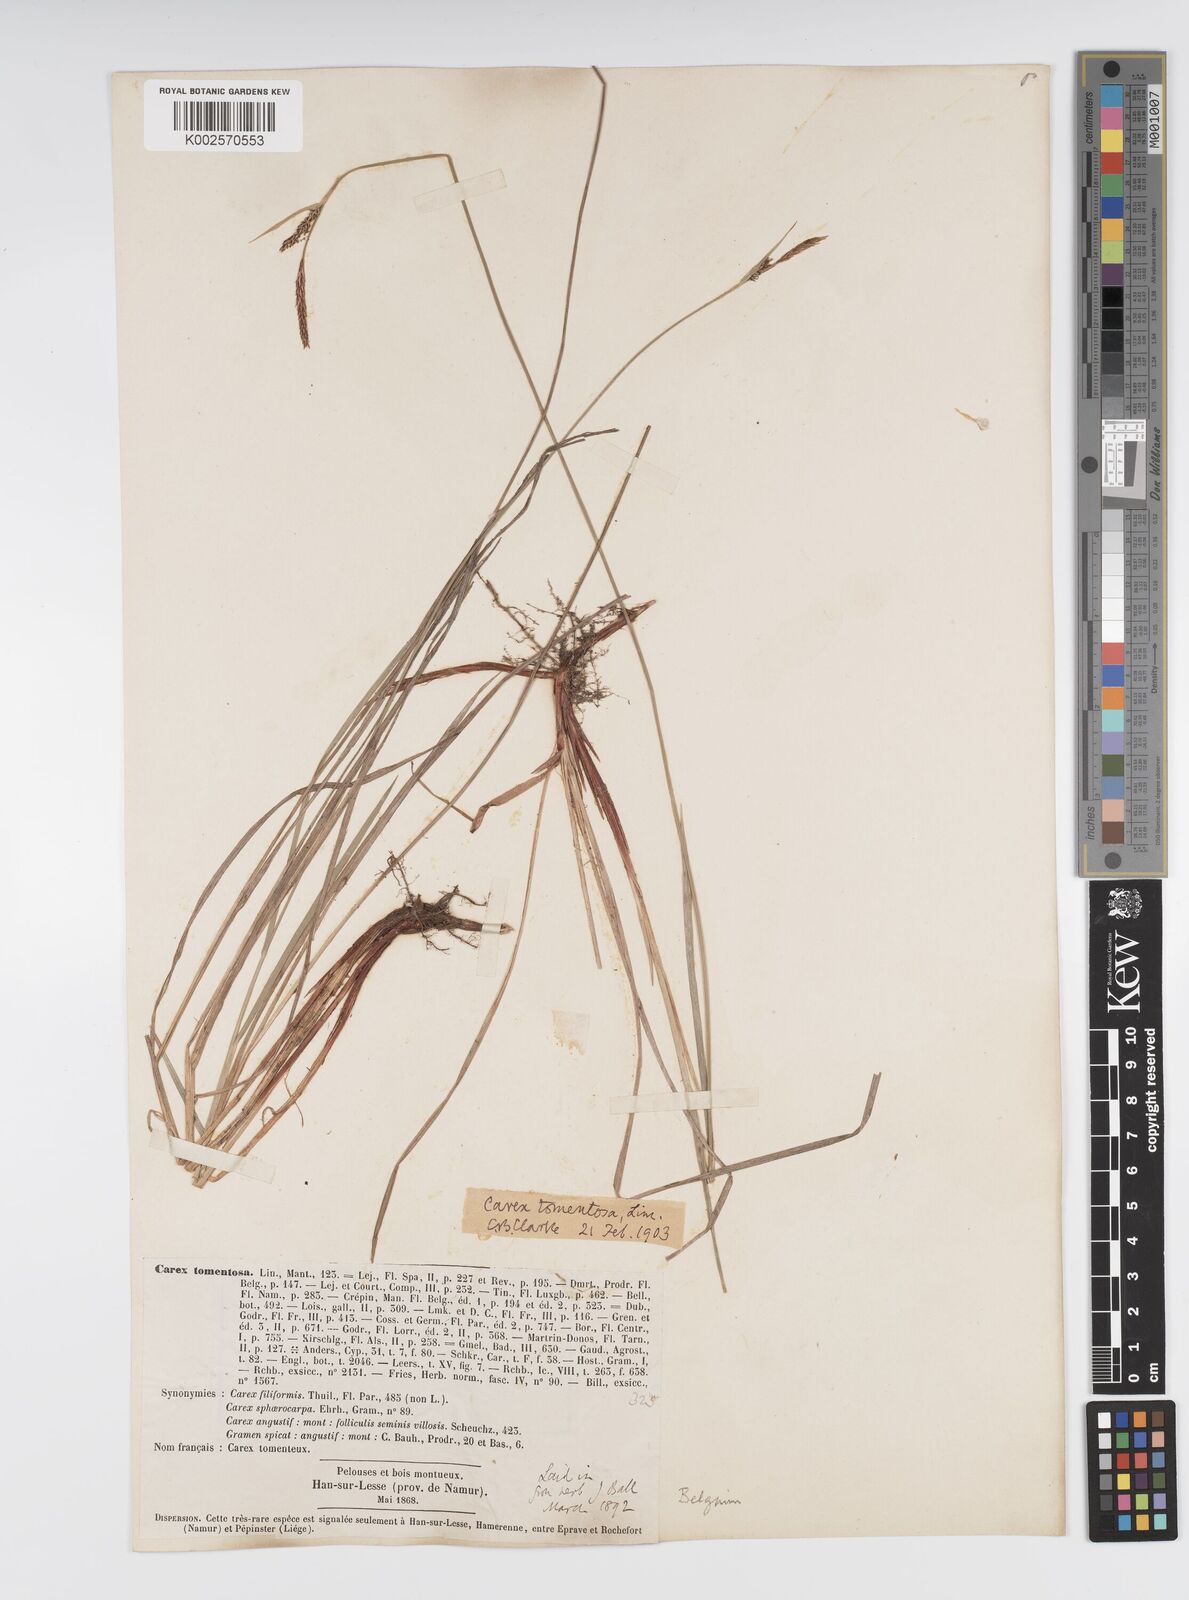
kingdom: Plantae
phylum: Tracheophyta
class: Liliopsida
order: Poales
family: Cyperaceae
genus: Carex
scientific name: Carex montana
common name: Soft-leaved sedge
